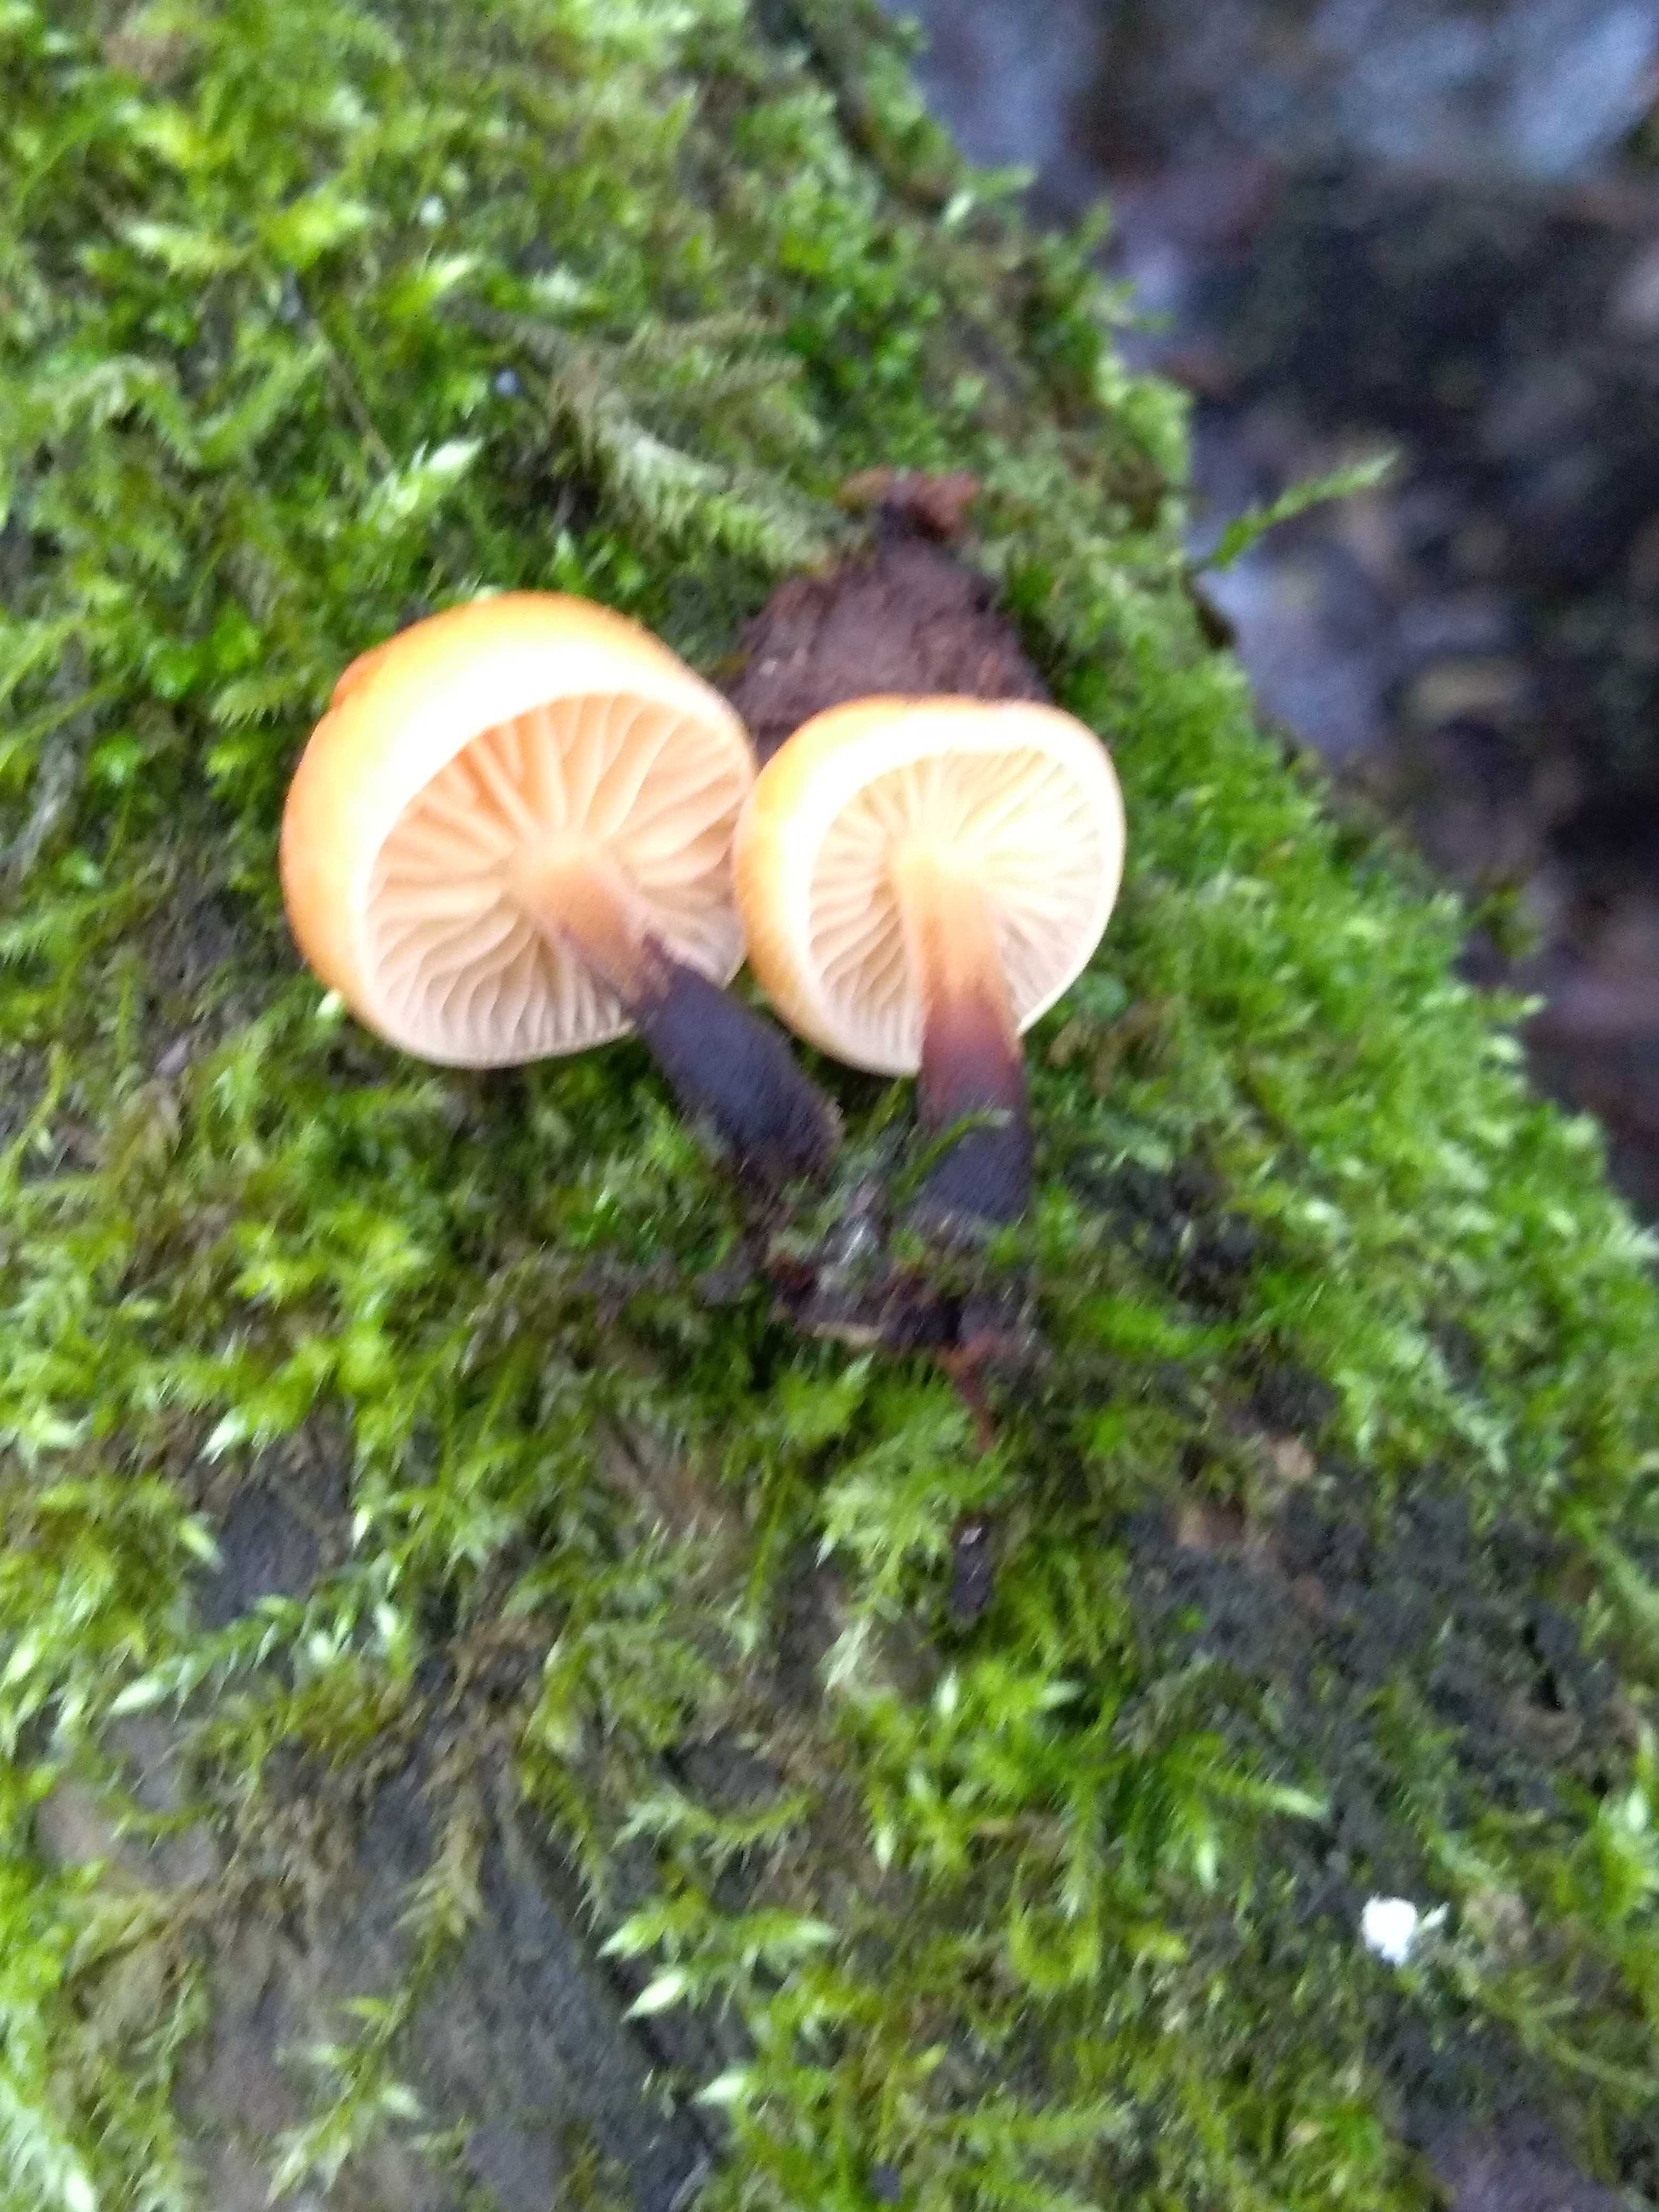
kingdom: Fungi
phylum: Basidiomycota
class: Agaricomycetes
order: Agaricales
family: Physalacriaceae
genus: Flammulina
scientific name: Flammulina
